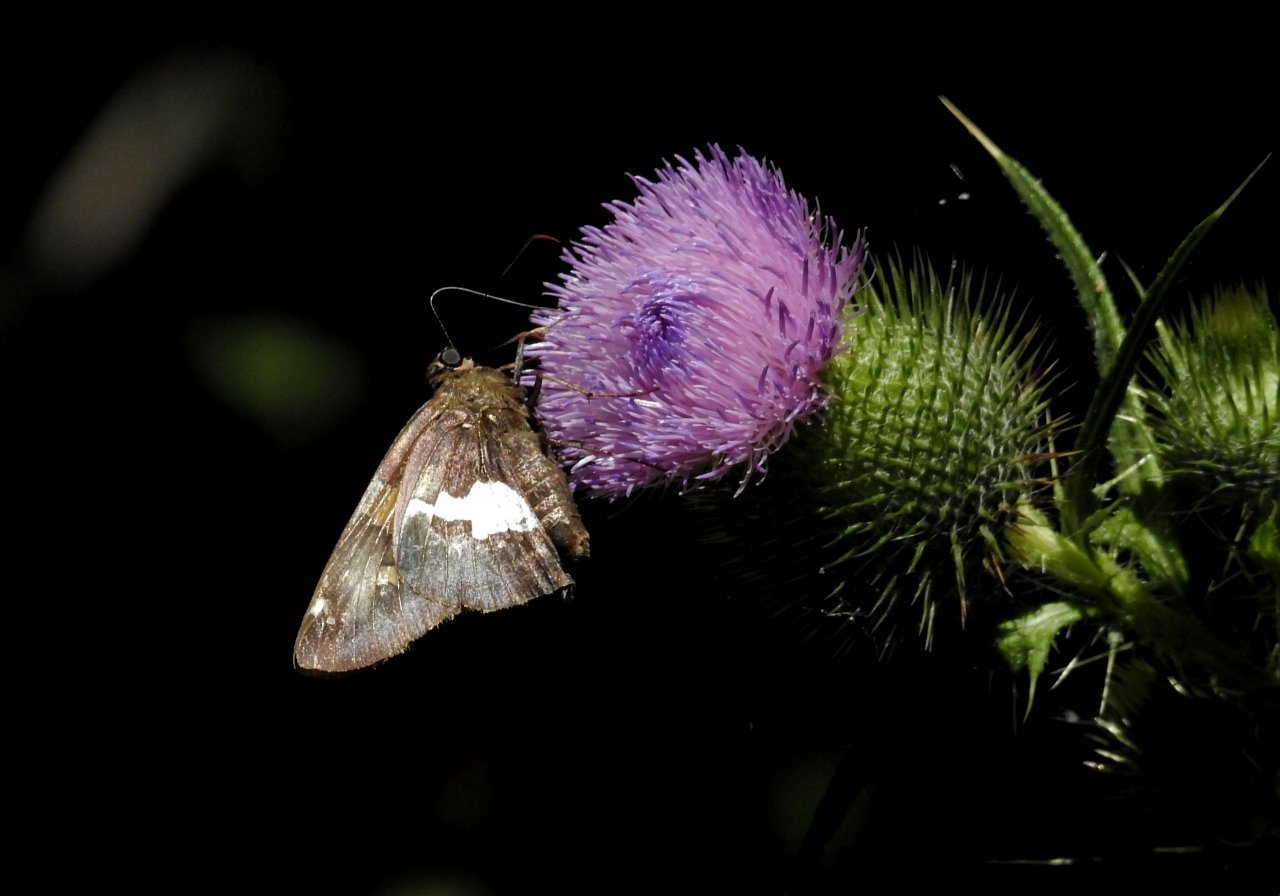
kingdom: Animalia
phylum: Arthropoda
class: Insecta
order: Lepidoptera
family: Hesperiidae
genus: Epargyreus
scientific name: Epargyreus clarus
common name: Silver-spotted Skipper
